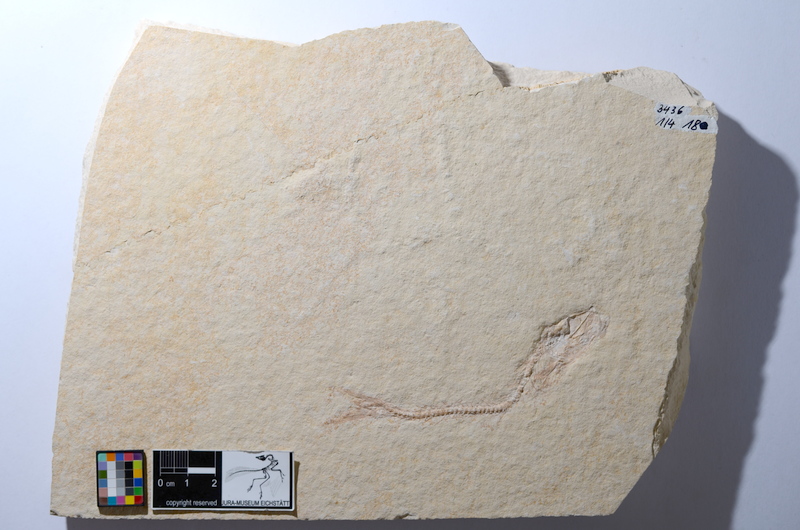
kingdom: Animalia
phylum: Chordata
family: Ascalaboidae
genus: Tharsis
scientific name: Tharsis dubius
